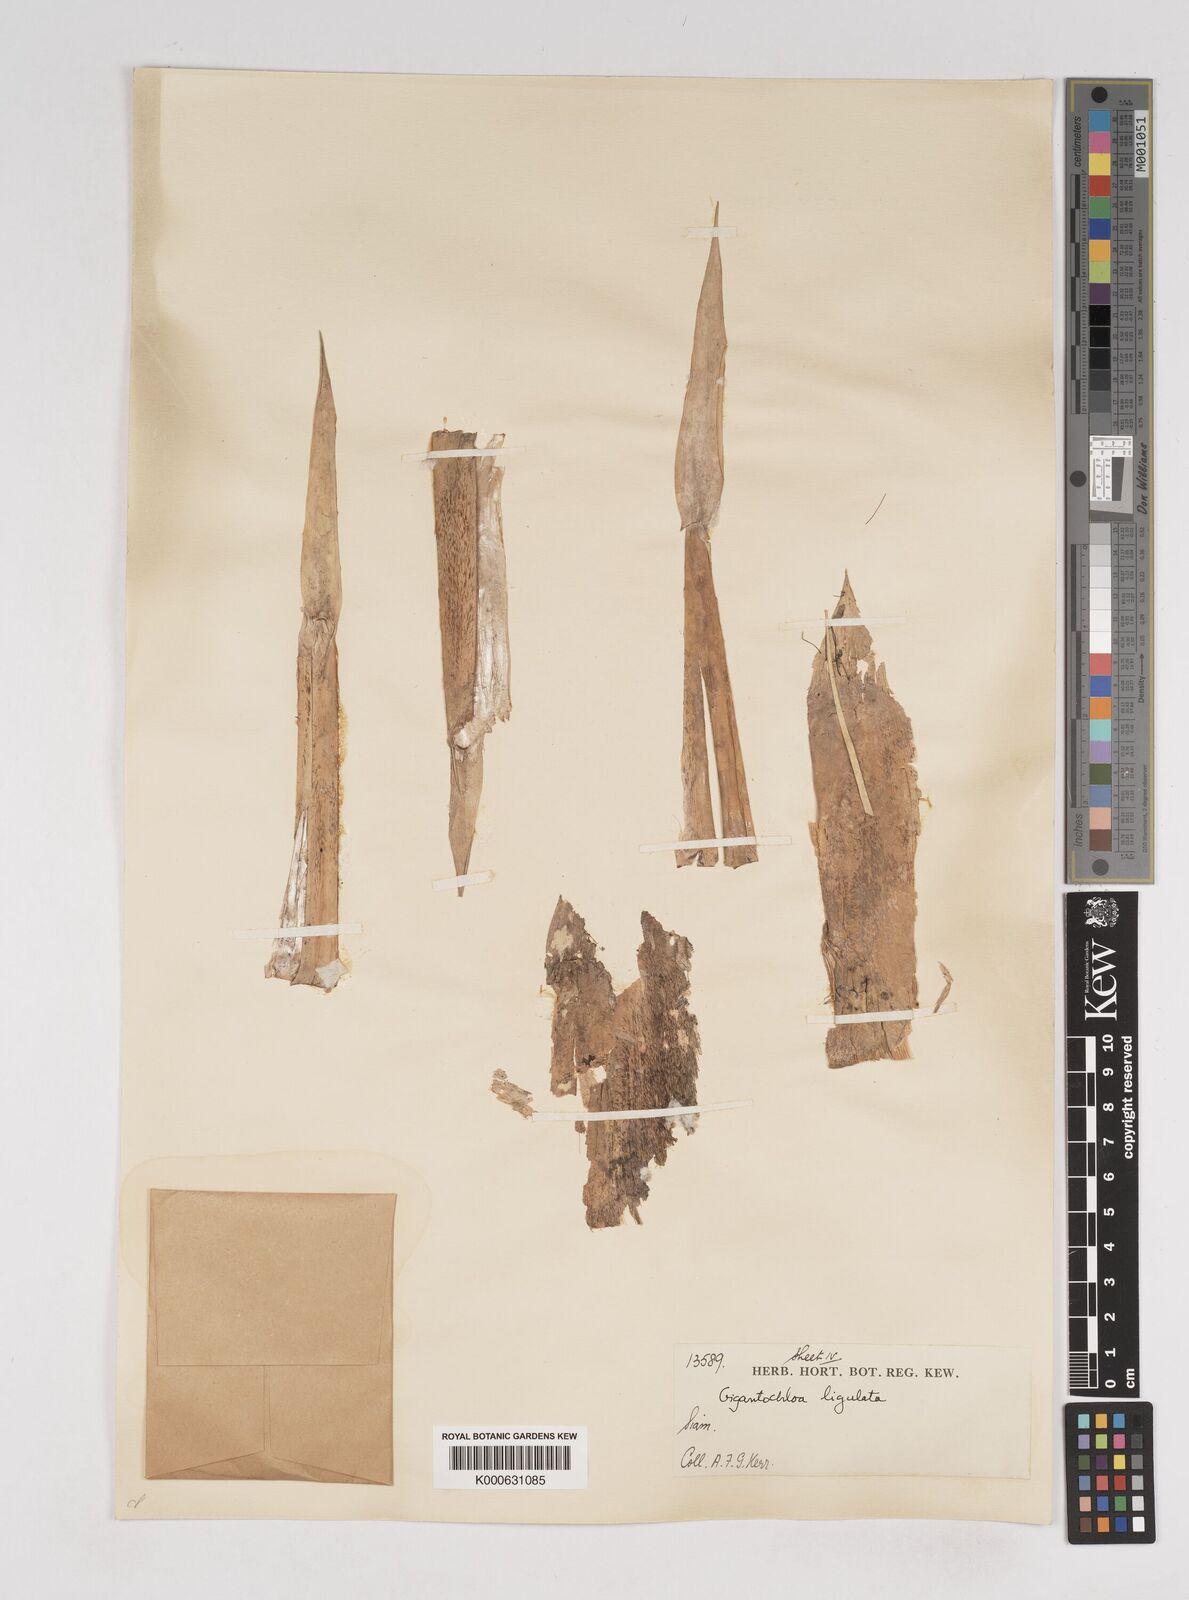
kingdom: Plantae
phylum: Tracheophyta
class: Liliopsida
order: Poales
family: Poaceae
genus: Gigantochloa
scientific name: Gigantochloa ligulata
